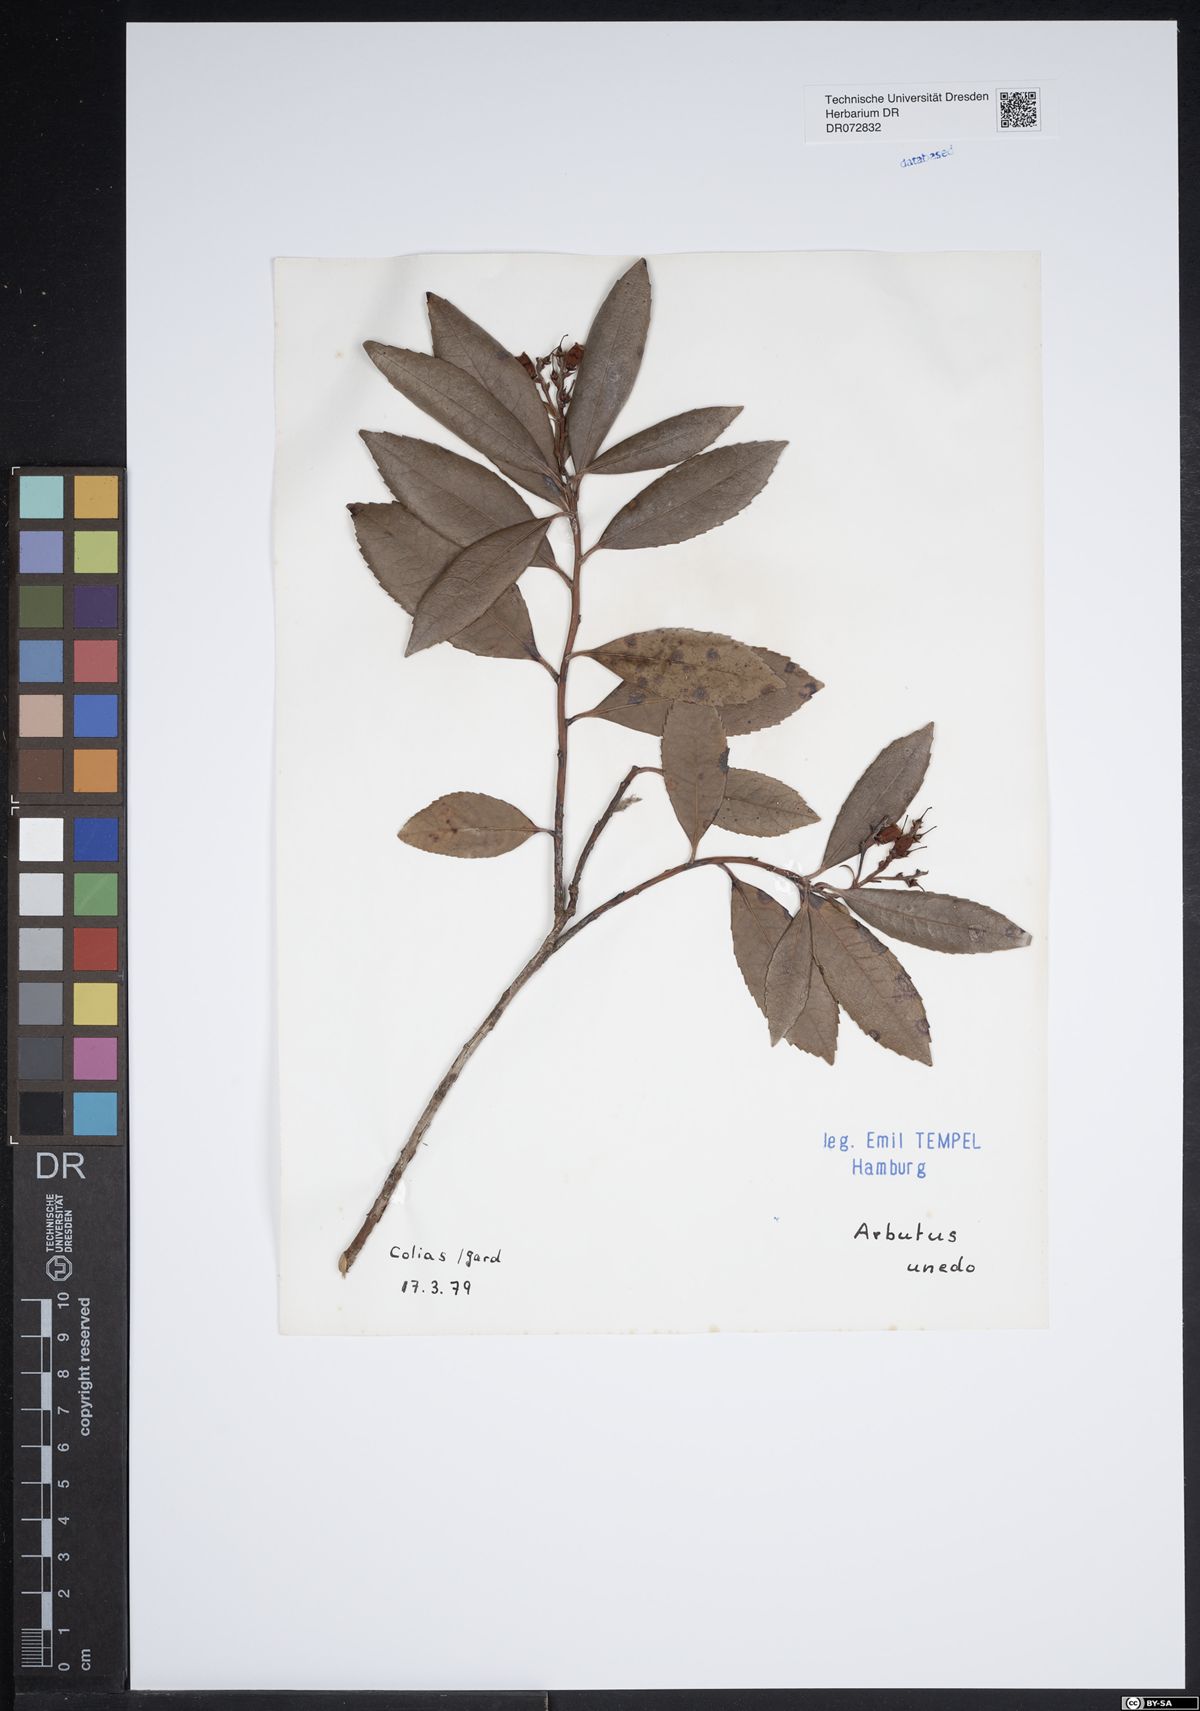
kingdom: Plantae
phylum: Tracheophyta
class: Magnoliopsida
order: Ericales
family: Ericaceae
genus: Arbutus
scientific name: Arbutus unedo
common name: Strawberry-tree
